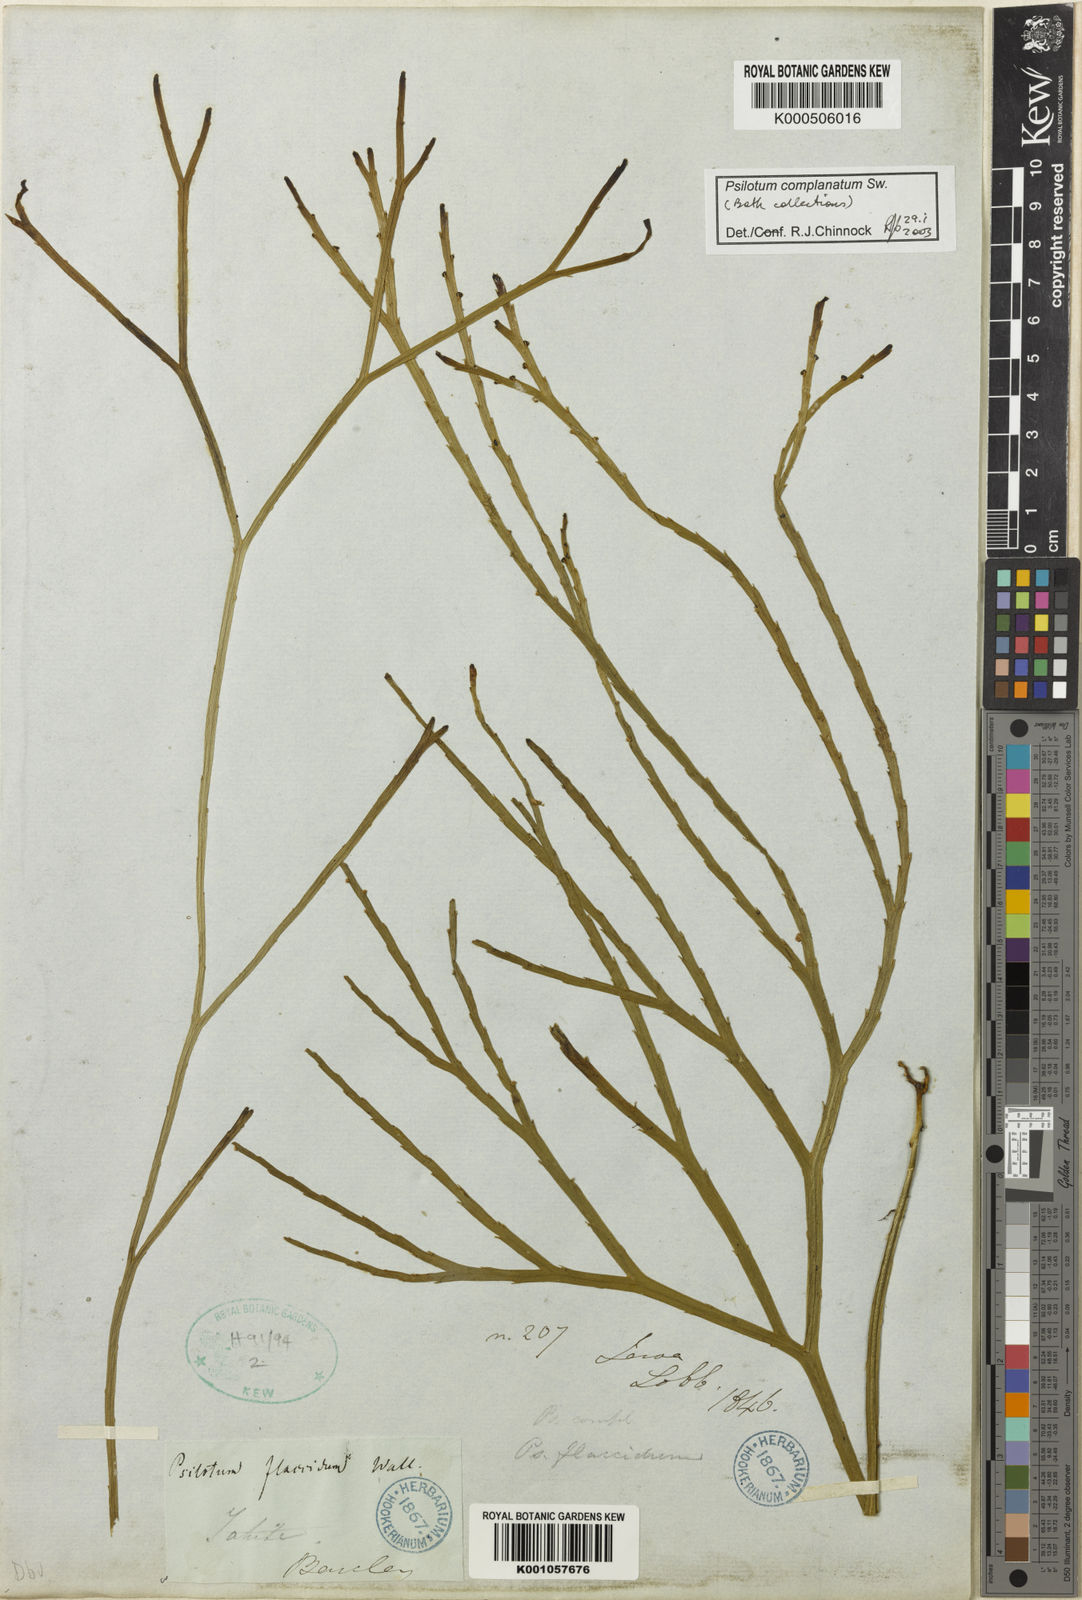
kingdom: Plantae
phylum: Tracheophyta
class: Polypodiopsida
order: Psilotales
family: Psilotaceae
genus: Psilotum
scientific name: Psilotum complanatum
